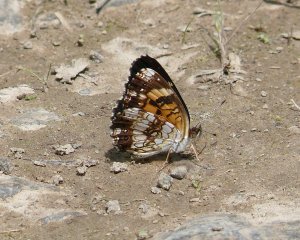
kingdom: Animalia
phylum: Arthropoda
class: Insecta
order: Lepidoptera
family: Nymphalidae
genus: Chlosyne
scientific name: Chlosyne nycteis
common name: Silvery Checkerspot
